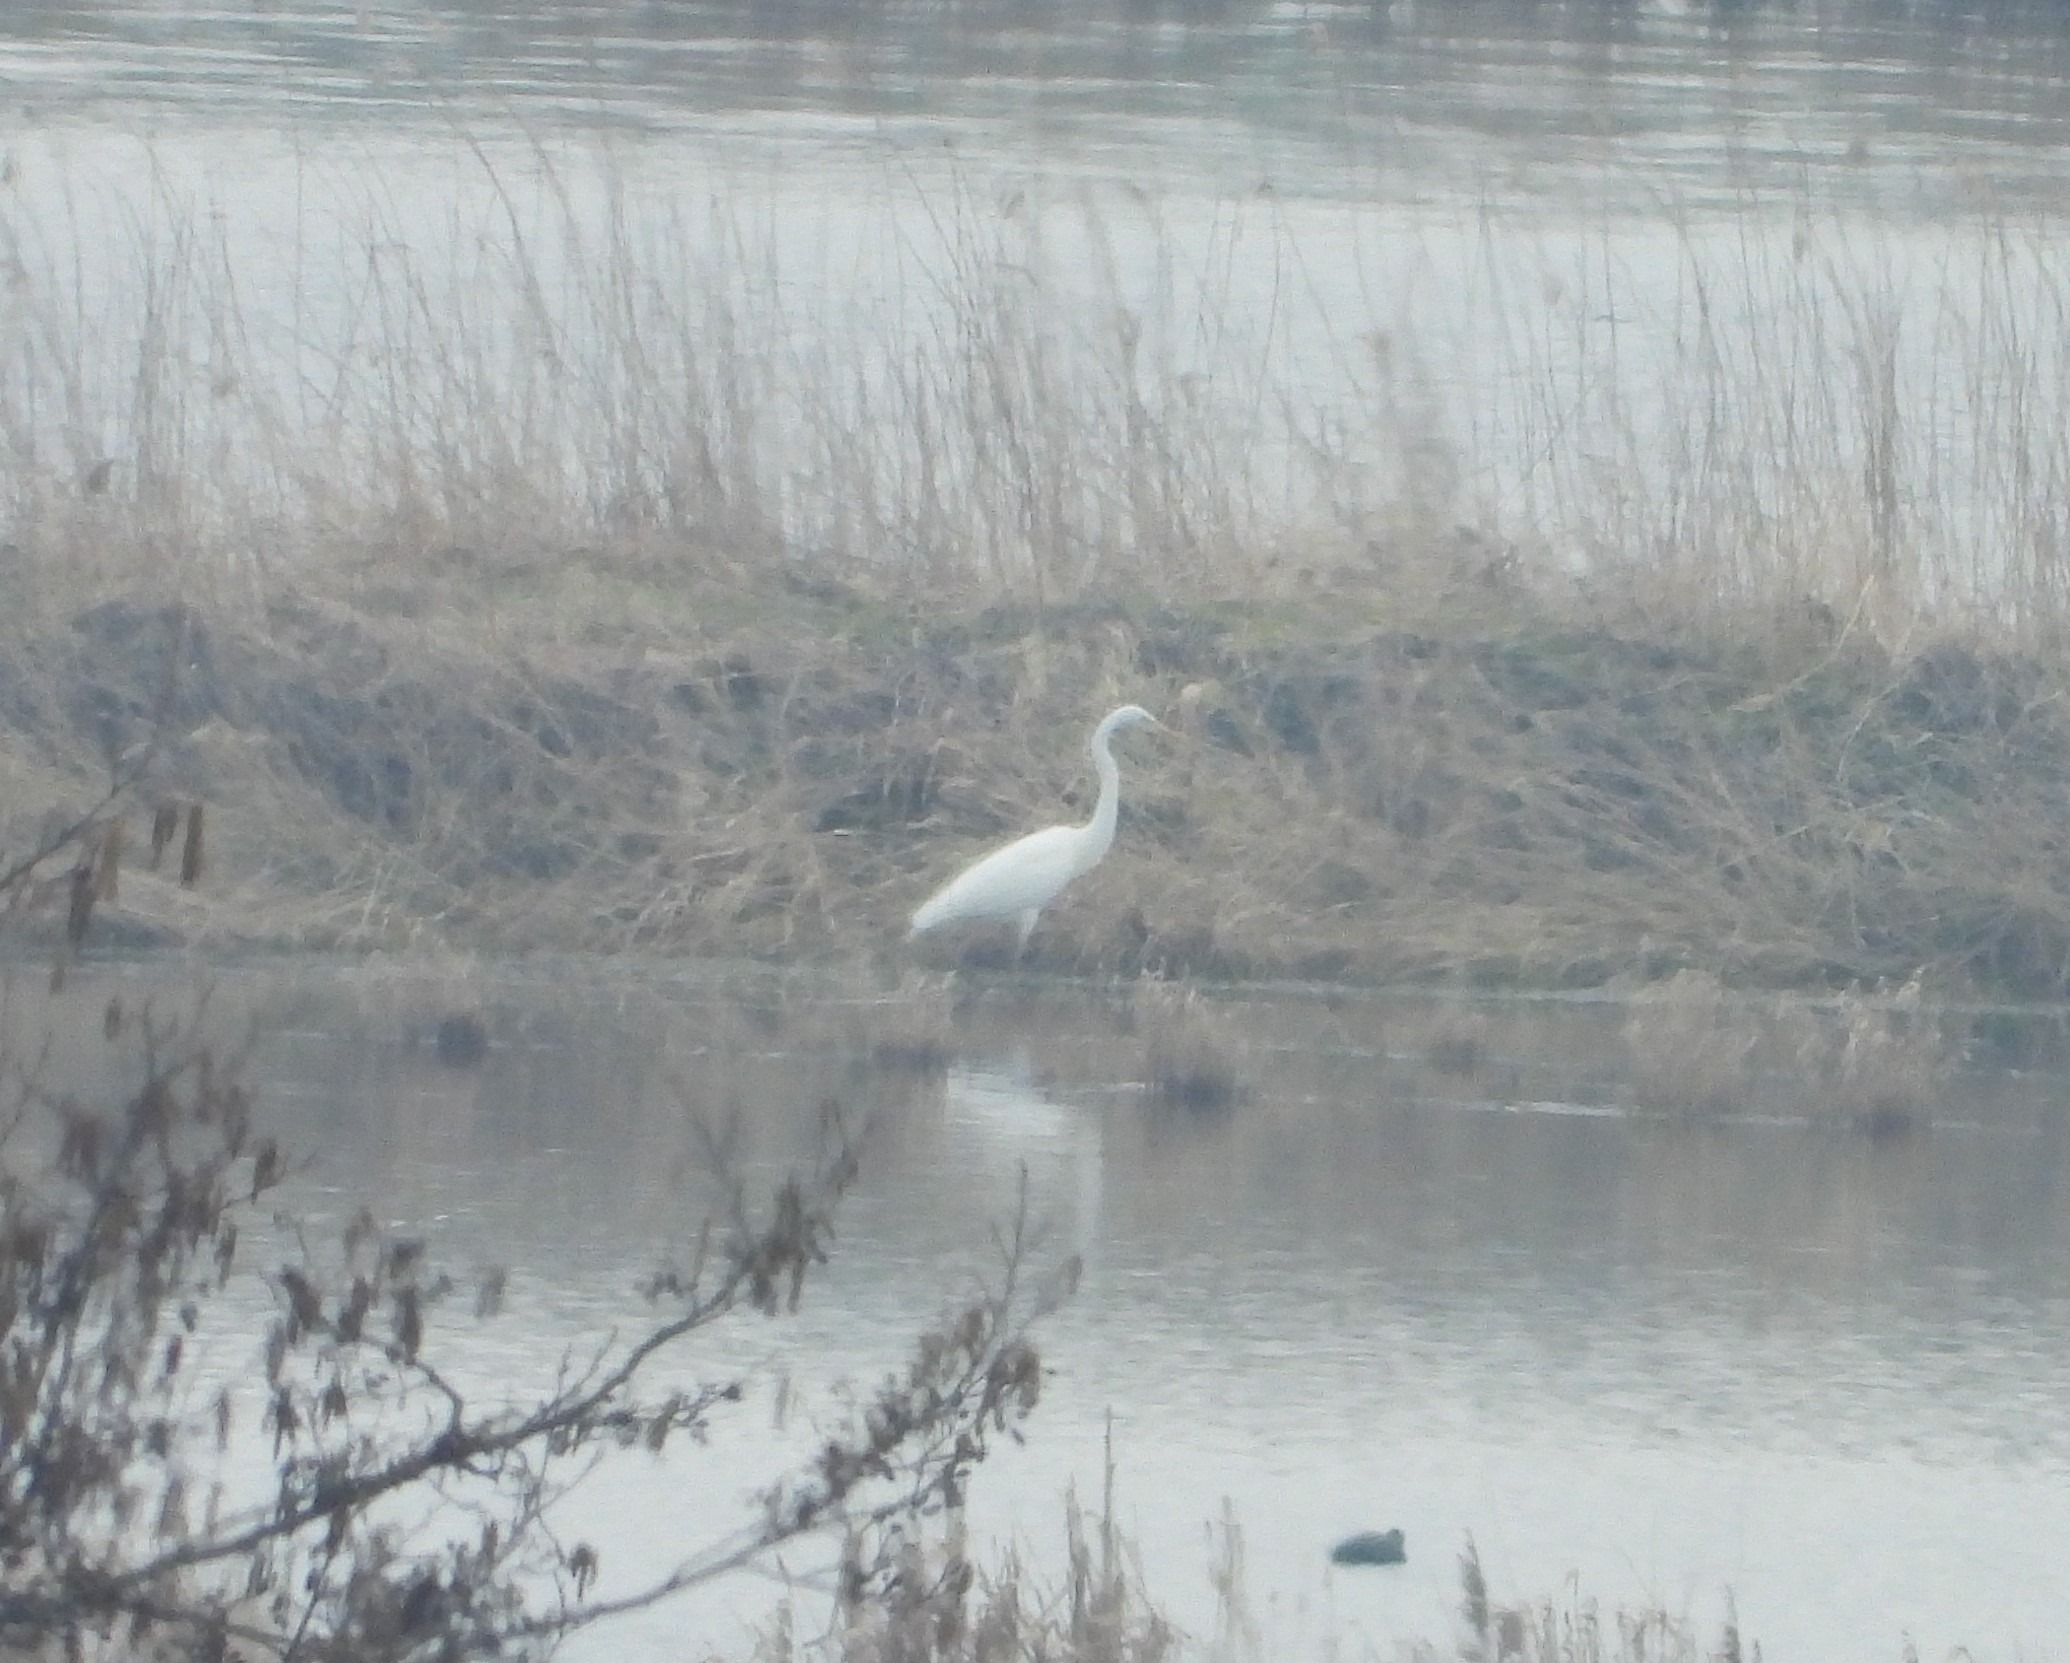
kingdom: Animalia
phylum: Chordata
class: Aves
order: Pelecaniformes
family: Ardeidae
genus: Ardea
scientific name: Ardea alba
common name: Sølvhejre
